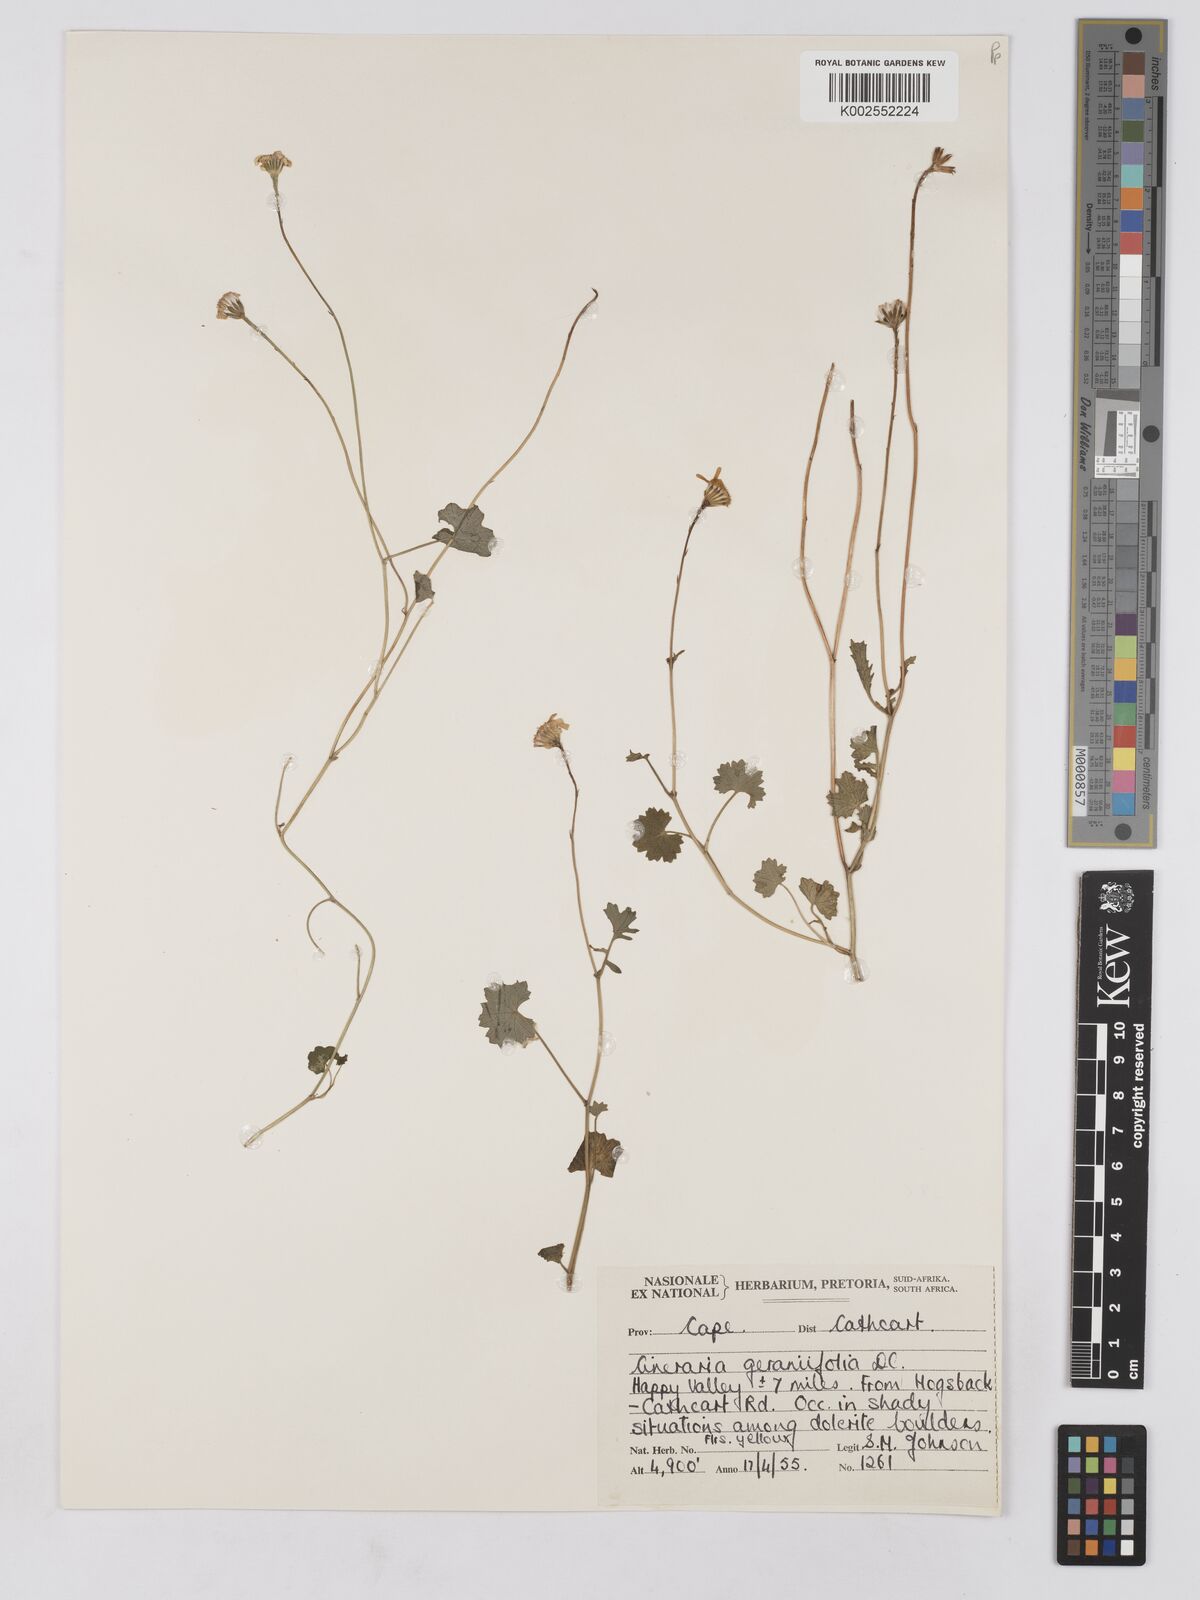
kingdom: Plantae
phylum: Tracheophyta
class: Magnoliopsida
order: Asterales
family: Asteraceae
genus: Cineraria
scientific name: Cineraria geraniifolia
